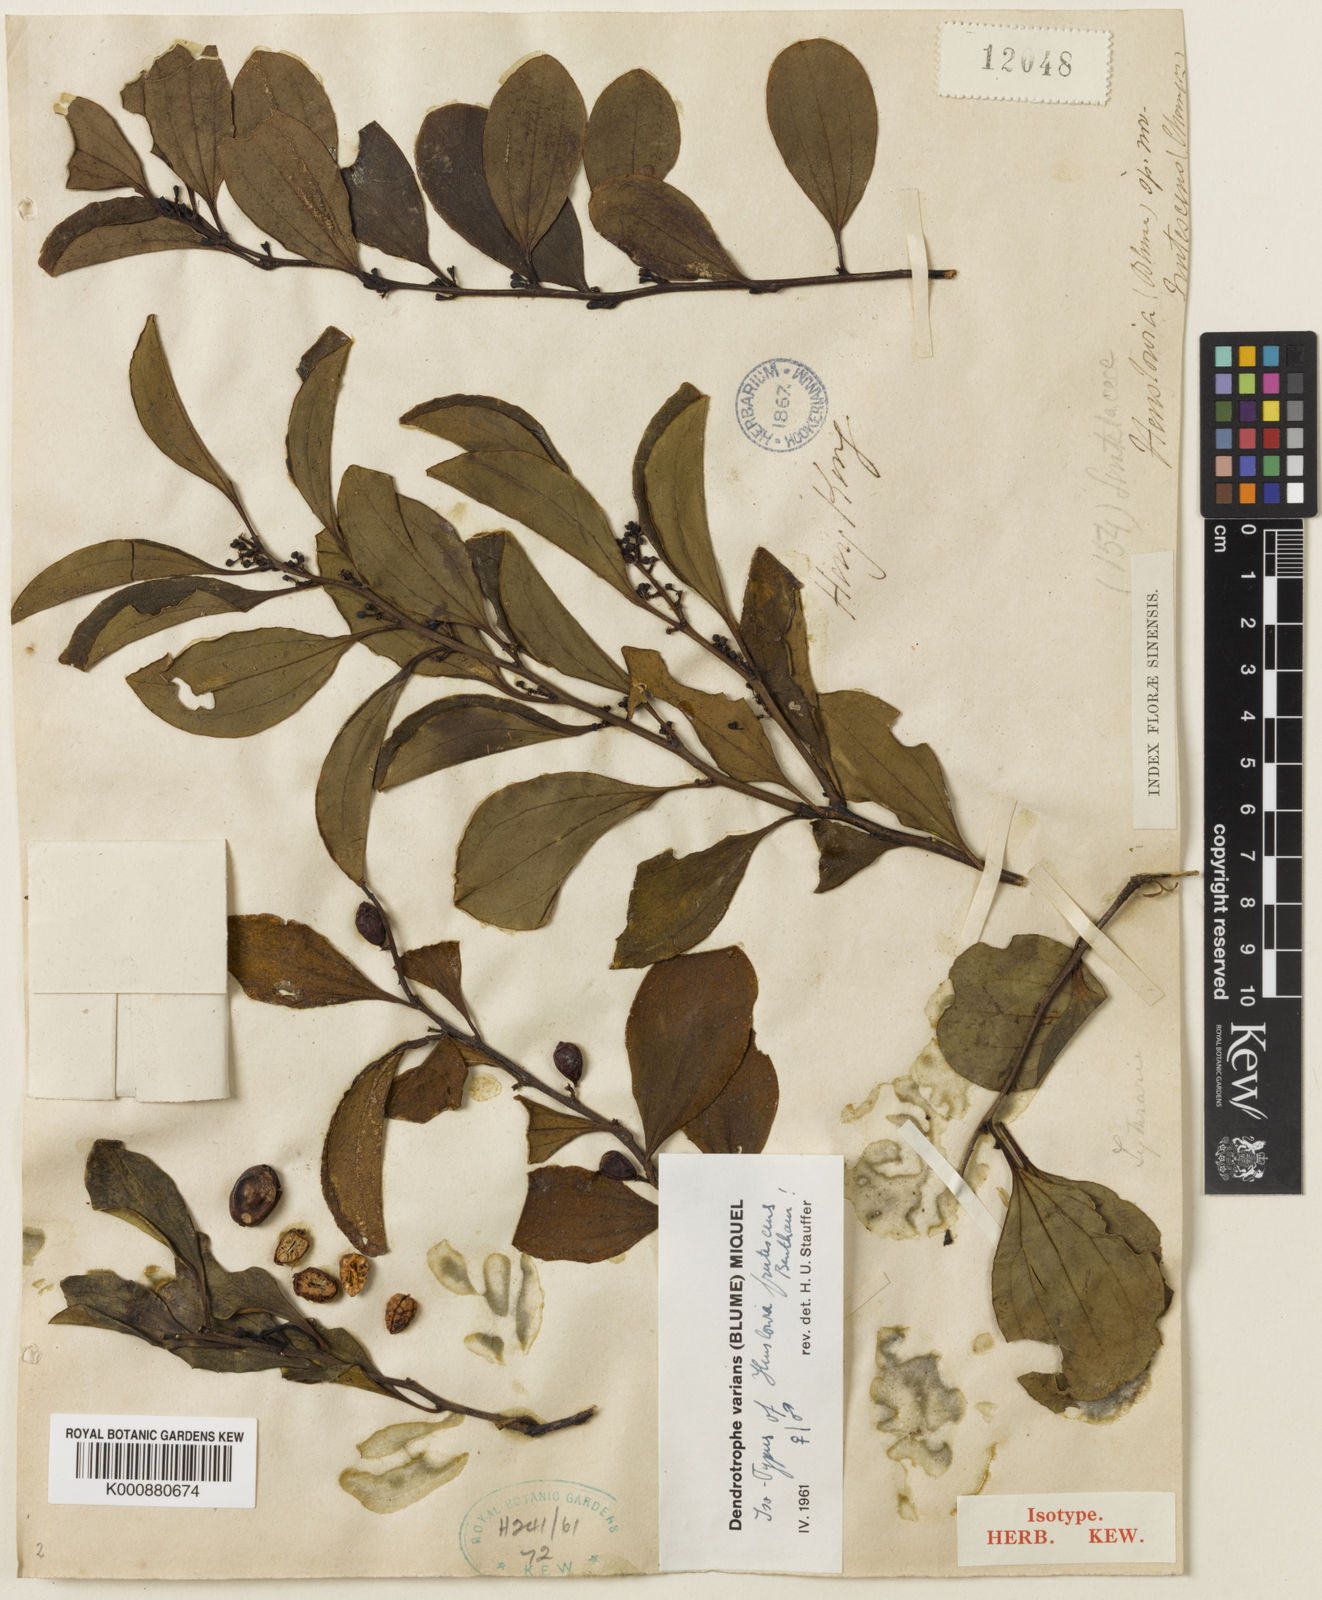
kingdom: Plantae
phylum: Tracheophyta
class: Magnoliopsida
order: Santalales
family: Amphorogynaceae
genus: Dendrotrophe
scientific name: Dendrotrophe varians
